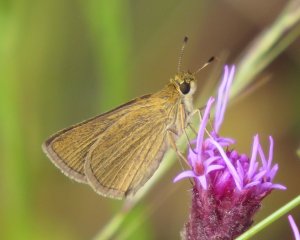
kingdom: Animalia
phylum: Arthropoda
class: Insecta
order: Lepidoptera
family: Hesperiidae
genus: Nastra
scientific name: Nastra lherminier
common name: Swarthy Skipper
